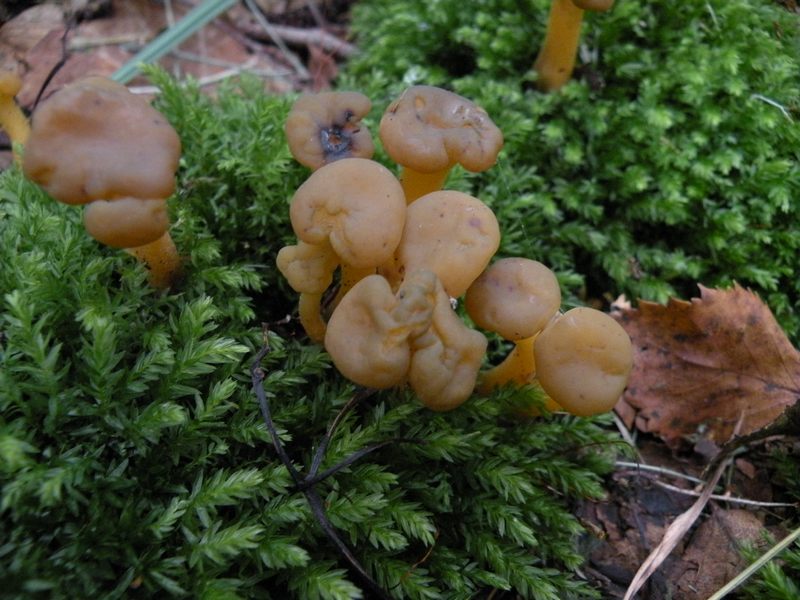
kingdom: Fungi
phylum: Ascomycota
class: Leotiomycetes
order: Leotiales
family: Leotiaceae
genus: Leotia
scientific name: Leotia lubrica
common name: ravsvamp
